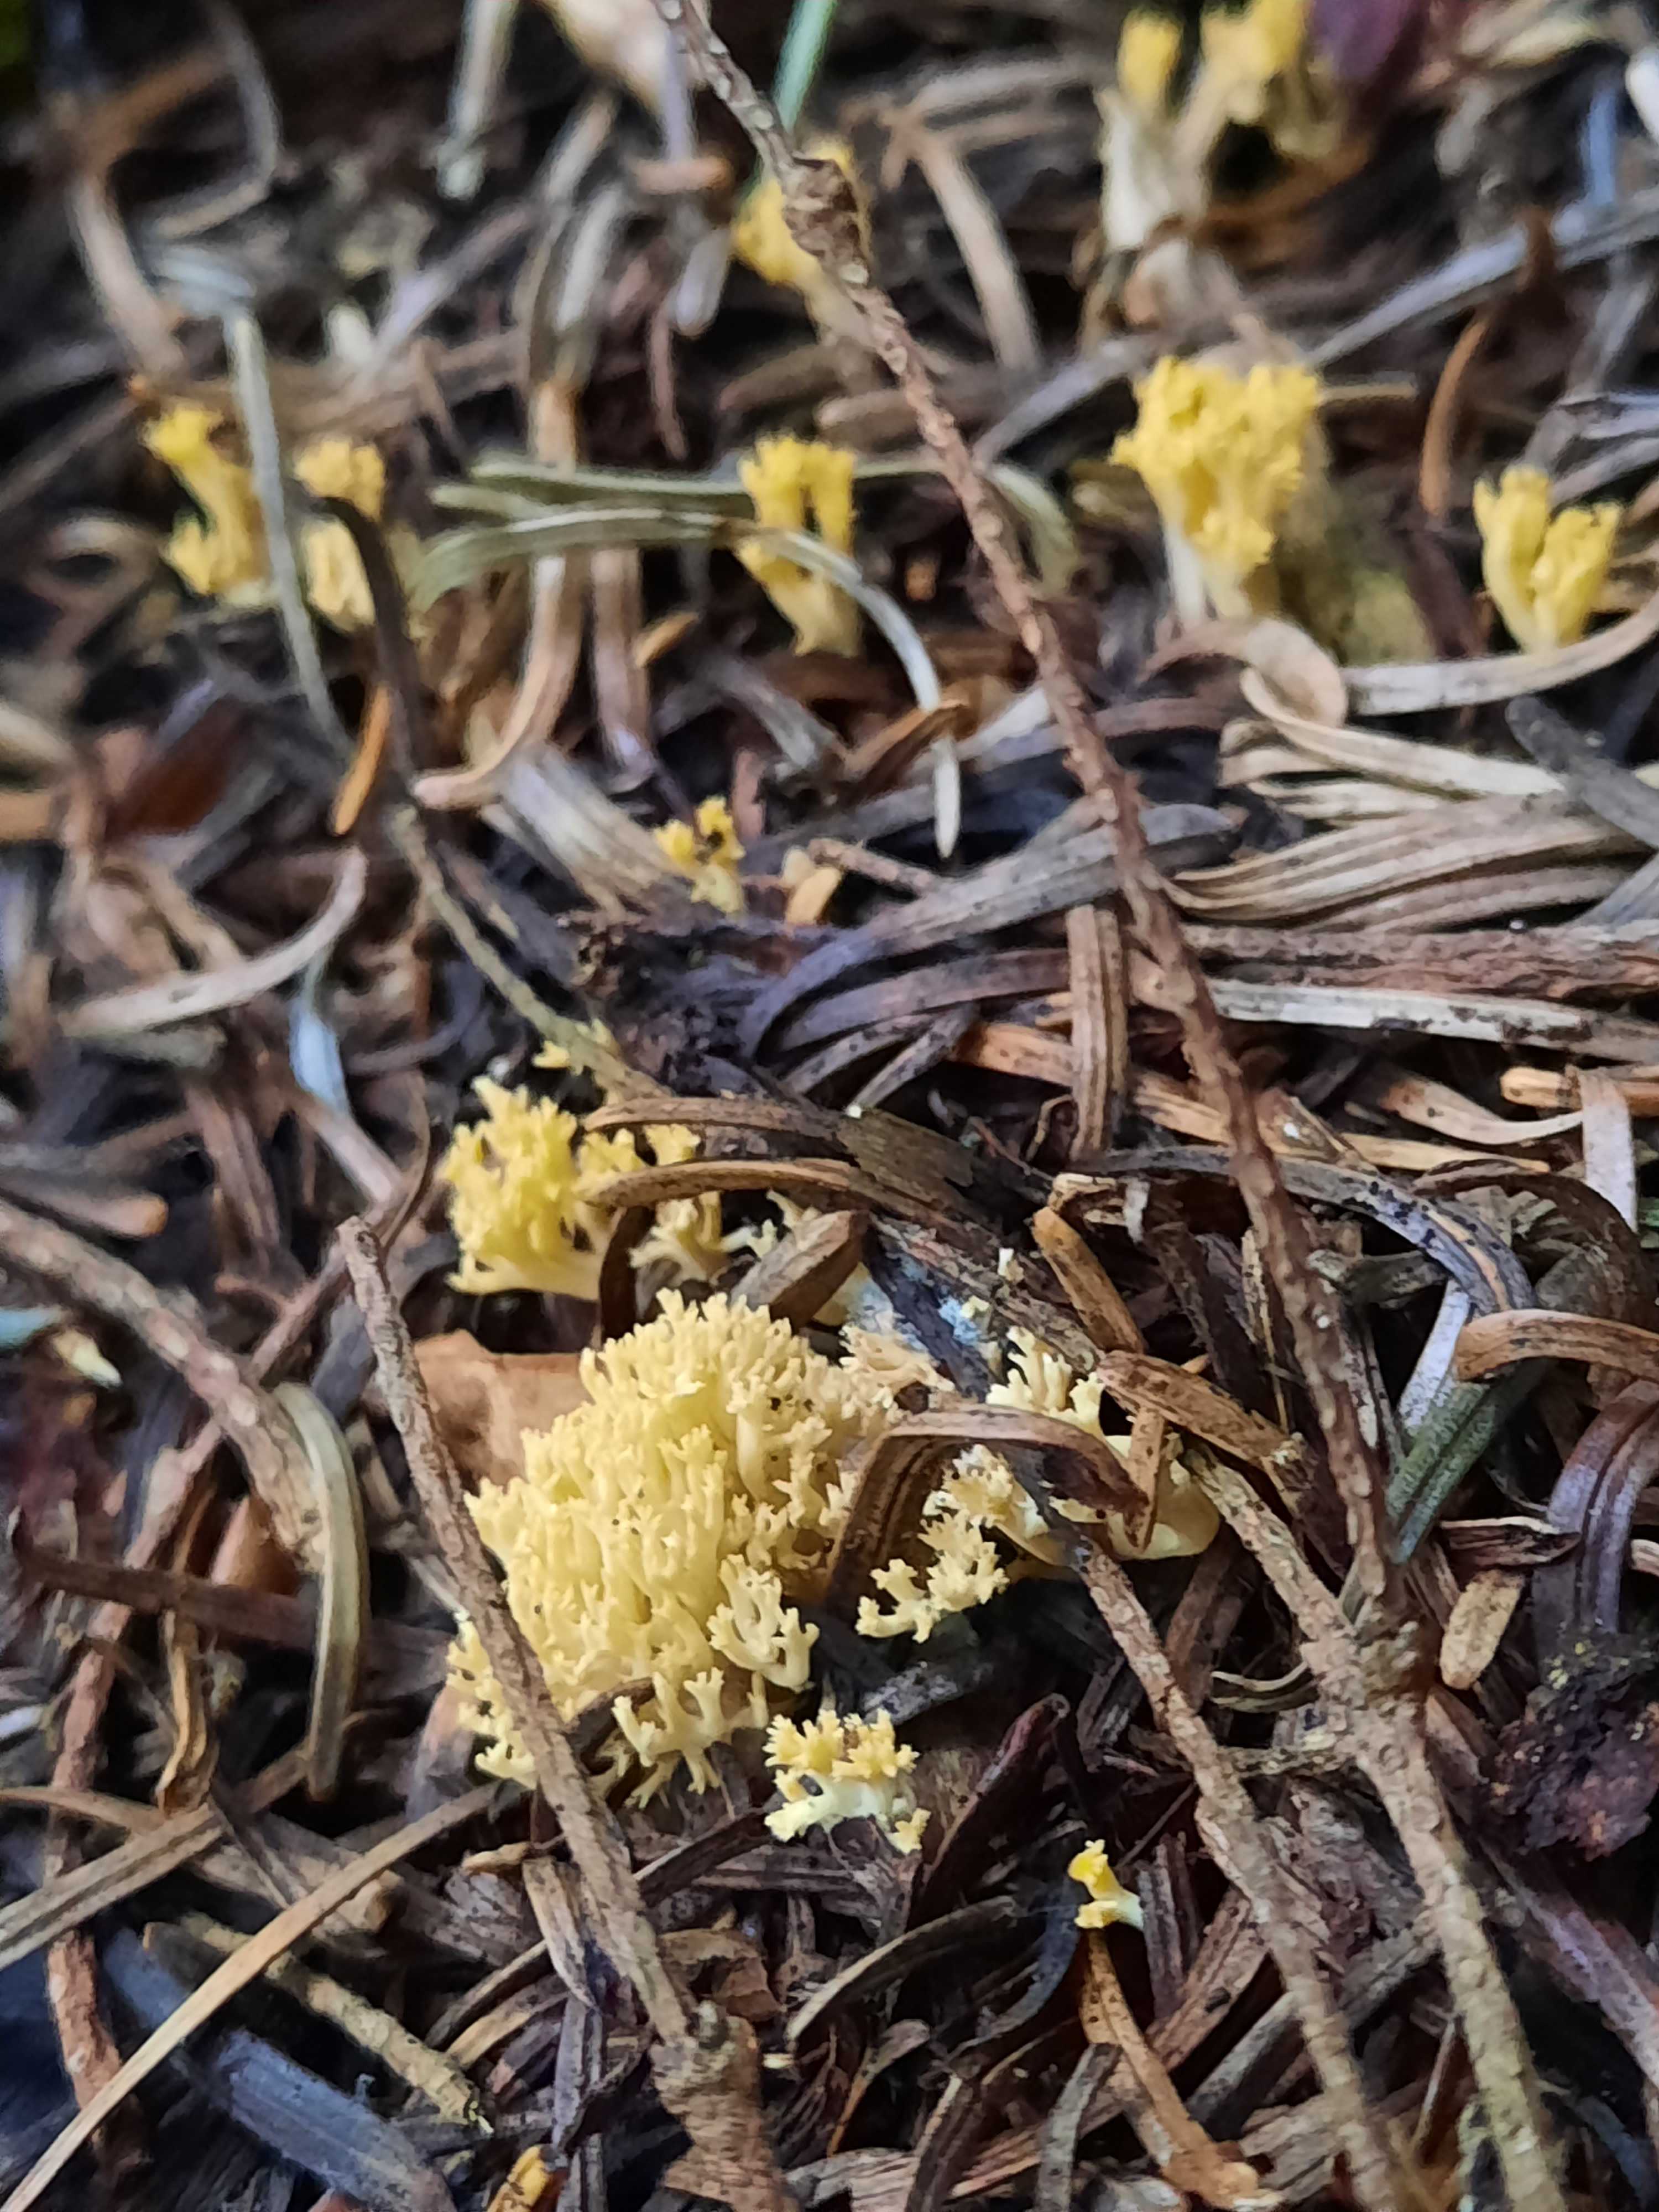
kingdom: Fungi
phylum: Basidiomycota
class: Agaricomycetes
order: Gomphales
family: Gomphaceae
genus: Phaeoclavulina
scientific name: Phaeoclavulina eumorpha
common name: gran-koralsvamp
